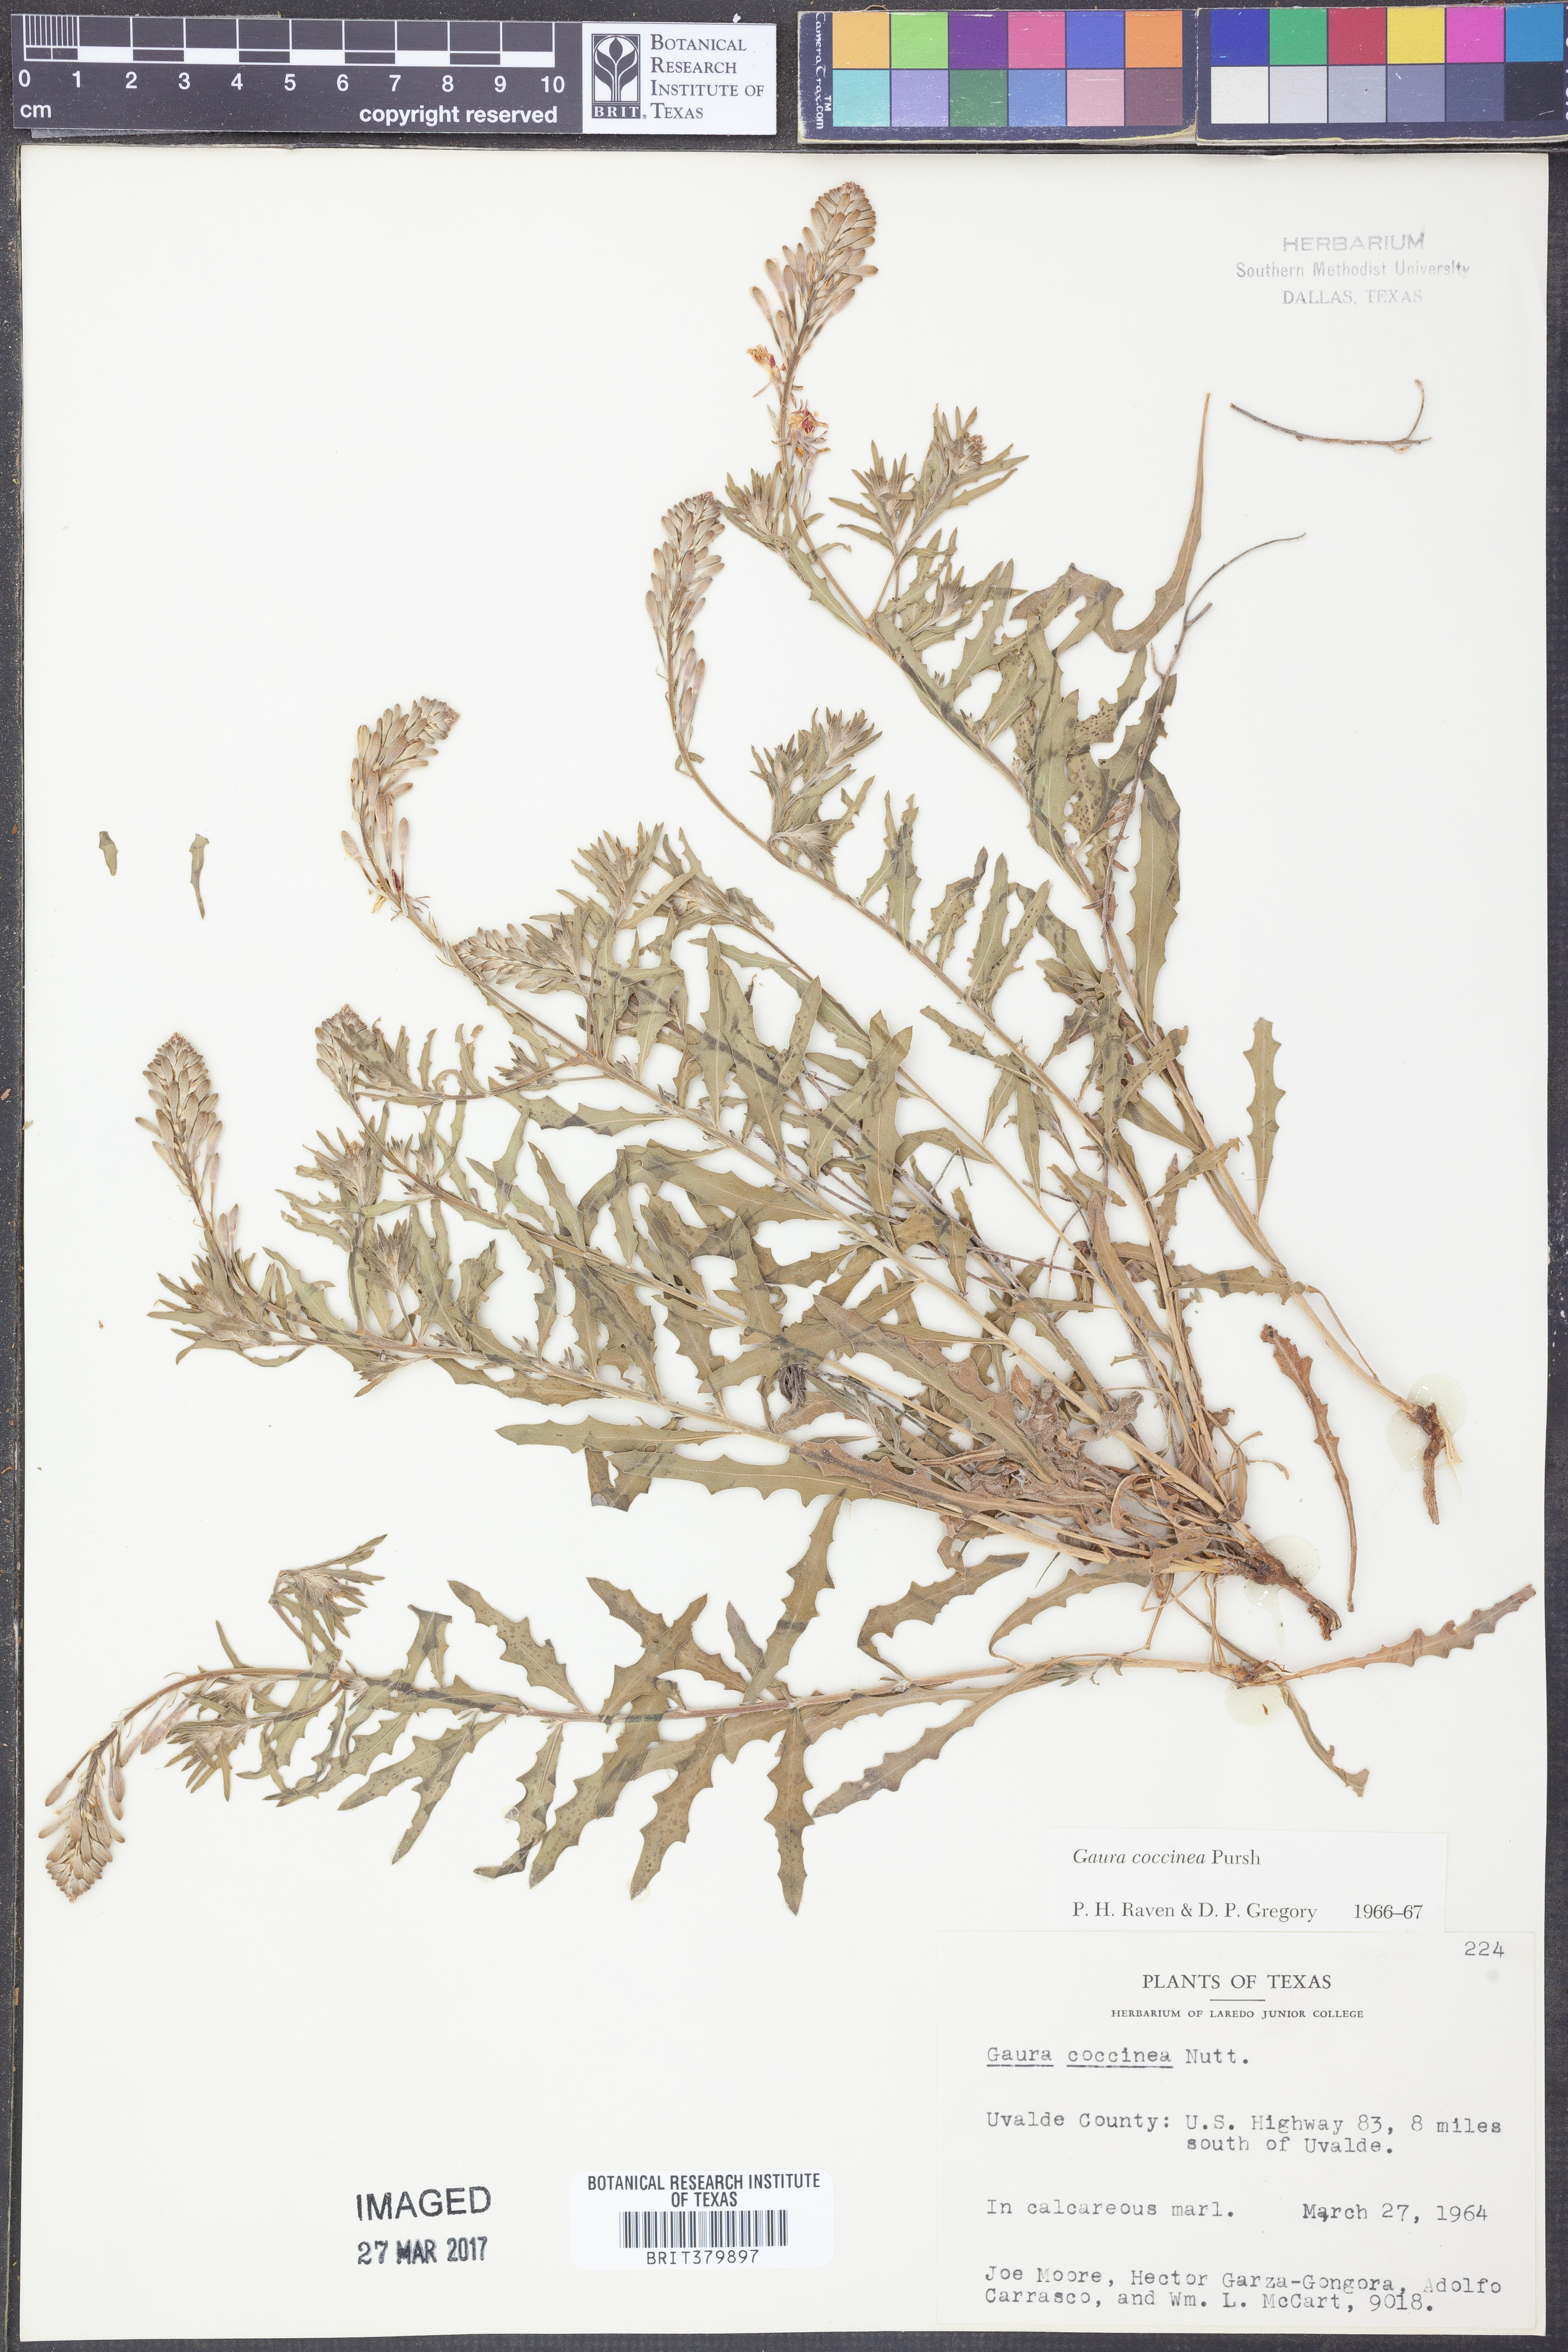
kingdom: Plantae
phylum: Tracheophyta
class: Magnoliopsida
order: Myrtales
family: Onagraceae
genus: Oenothera
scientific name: Oenothera suffrutescens
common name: Scarlet beeblossom
